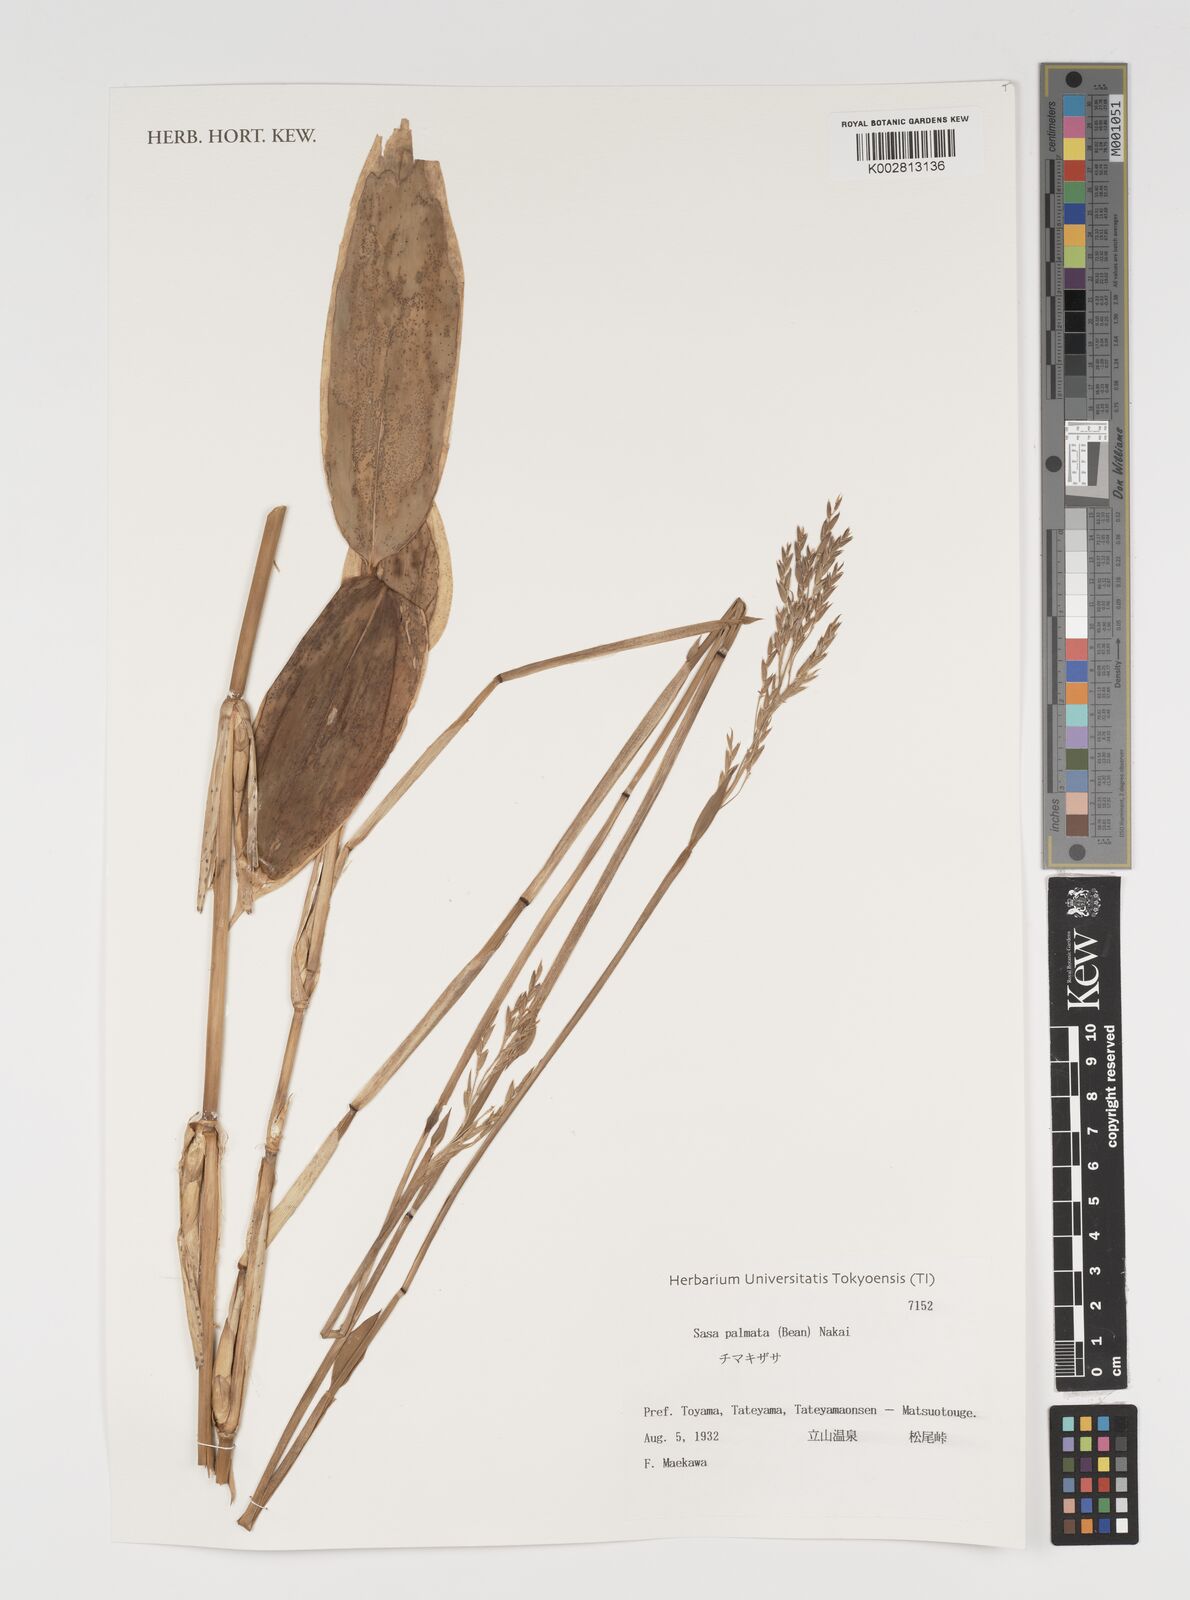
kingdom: Plantae
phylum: Tracheophyta
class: Liliopsida
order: Poales
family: Poaceae
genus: Sasa
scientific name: Sasa palmata
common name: Broad-leaved bamboo
